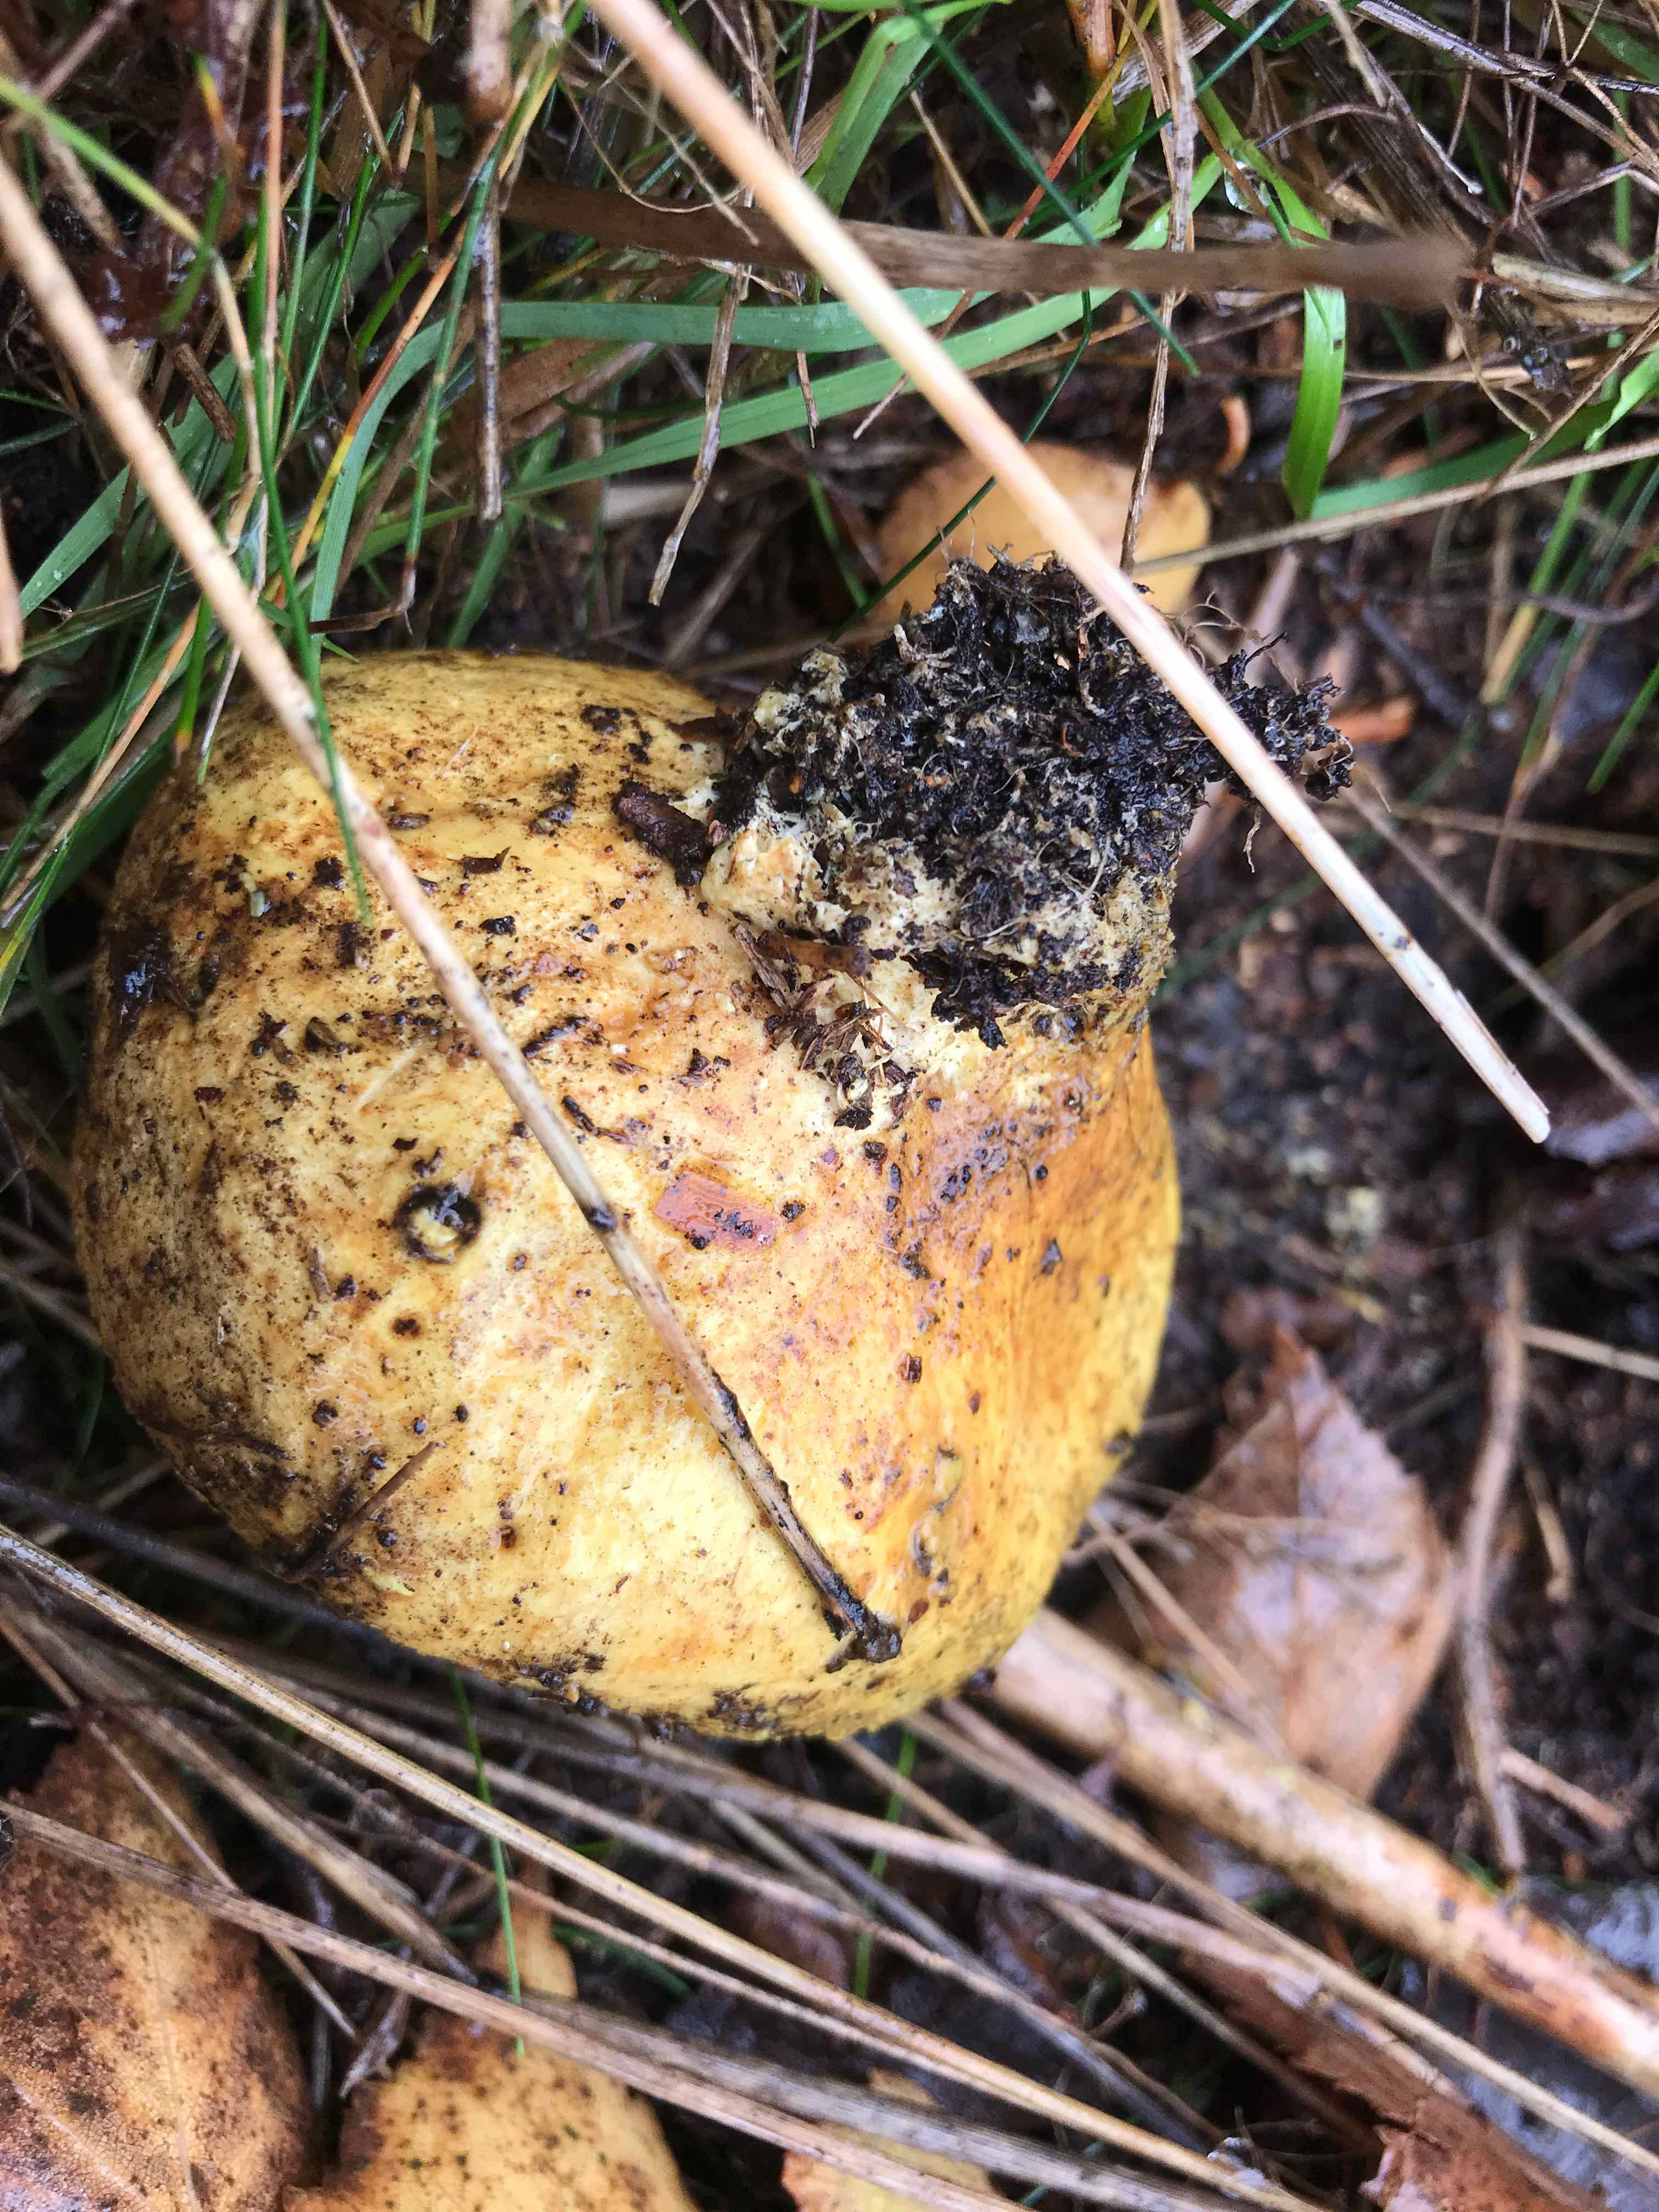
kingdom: Fungi
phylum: Basidiomycota
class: Agaricomycetes
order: Boletales
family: Sclerodermataceae
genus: Scleroderma
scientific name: Scleroderma citrinum
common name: almindelig bruskbold
